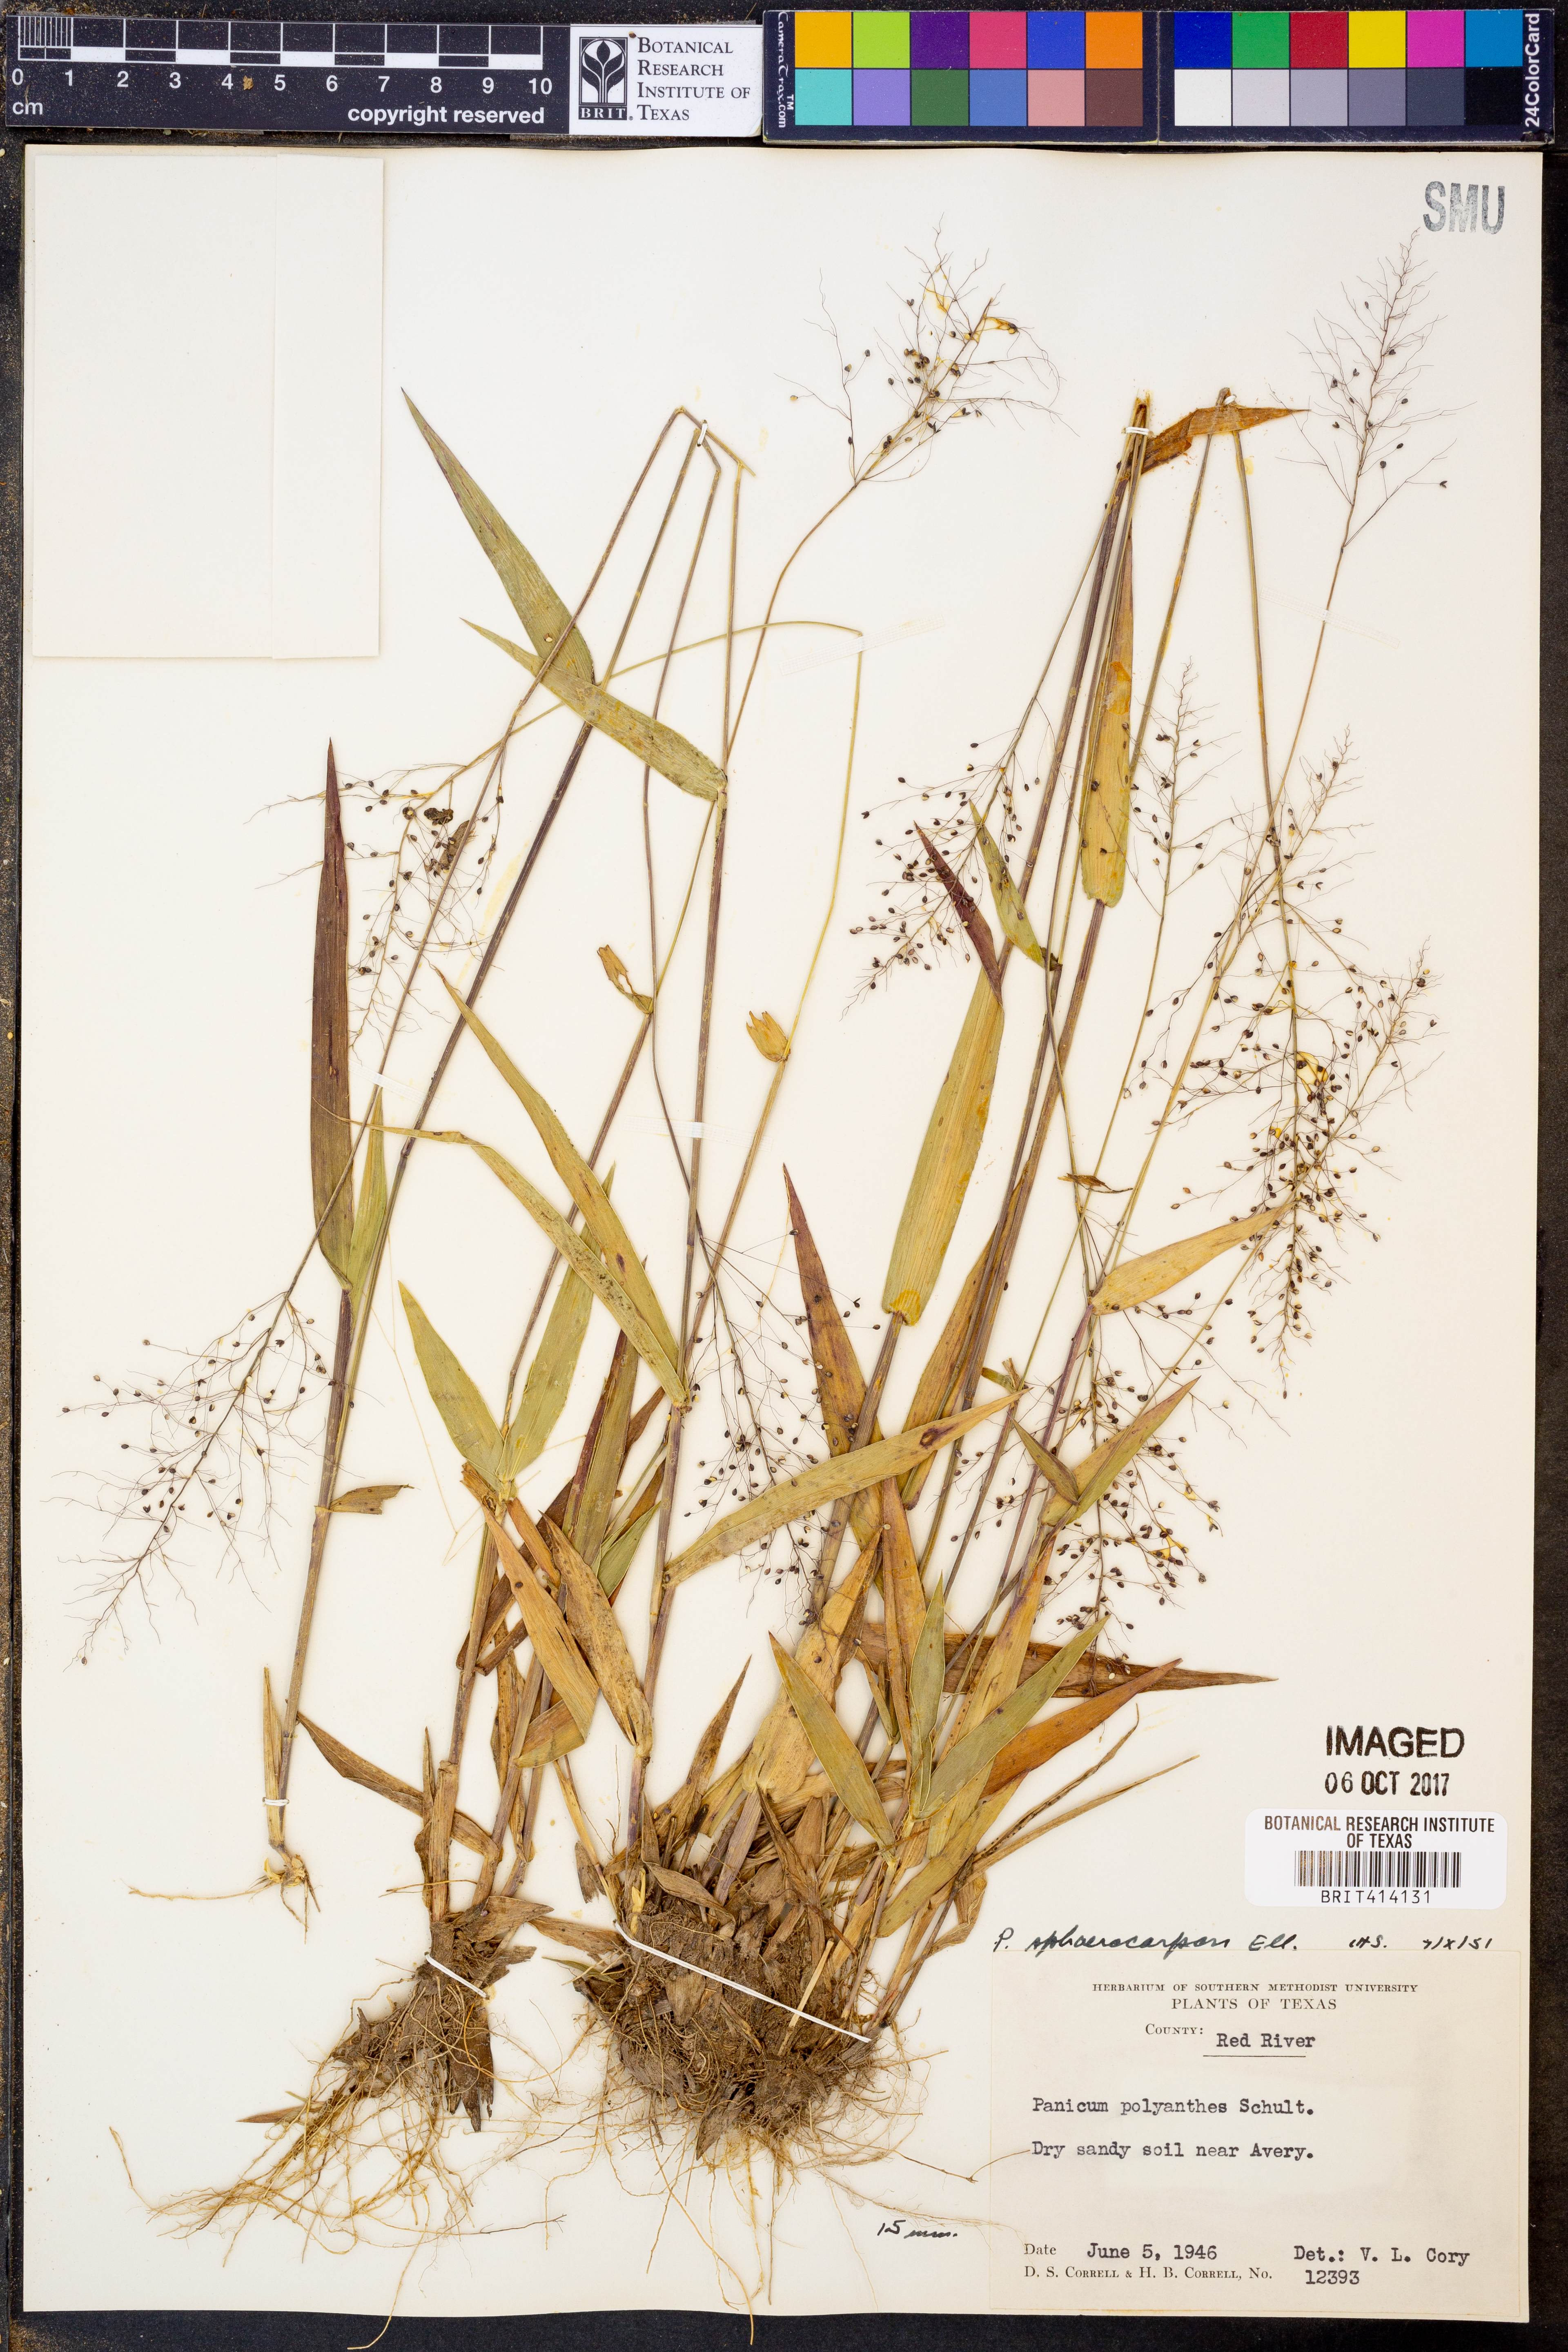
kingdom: Plantae
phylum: Tracheophyta
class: Liliopsida
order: Poales
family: Poaceae
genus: Dichanthelium
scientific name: Dichanthelium sphaerocarpon
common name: Round-fruited panicgrass
